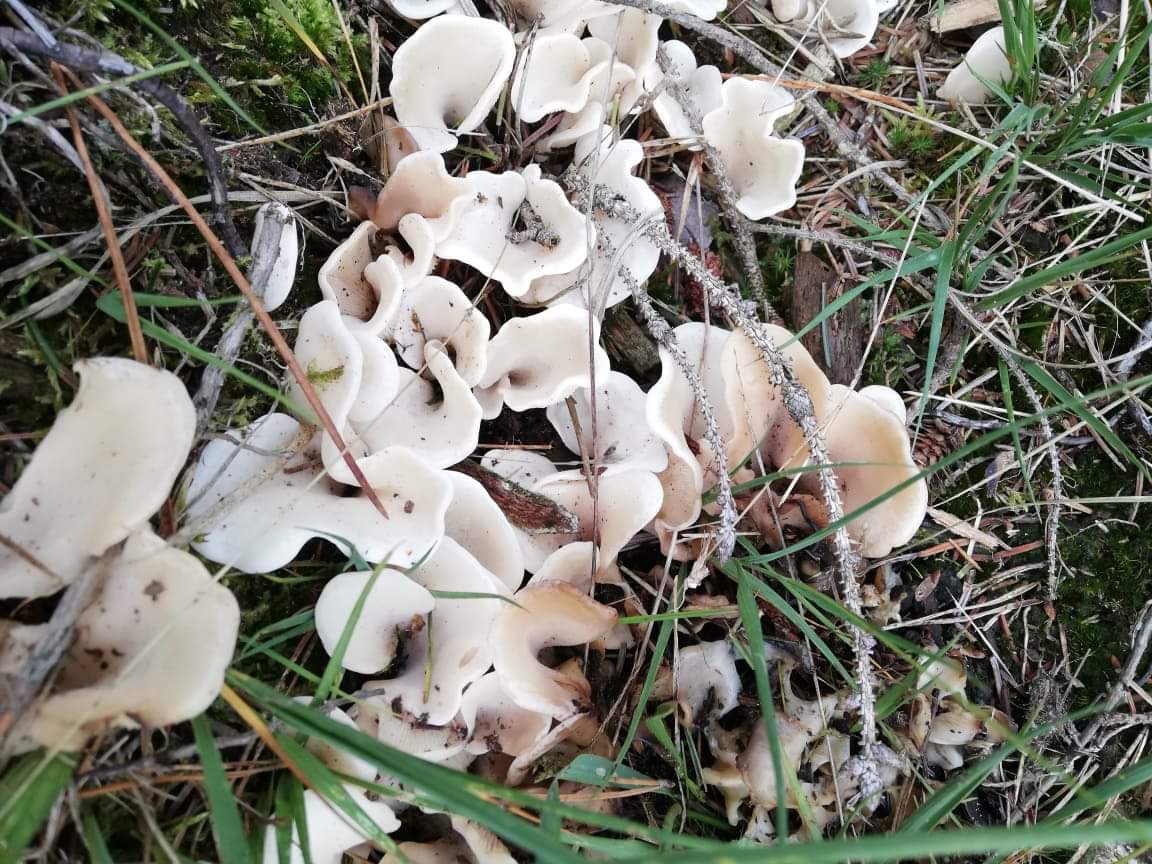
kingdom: Fungi
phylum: Basidiomycota
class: Agaricomycetes
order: Agaricales
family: Marasmiaceae
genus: Pleurocybella
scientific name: Pleurocybella porrigens
